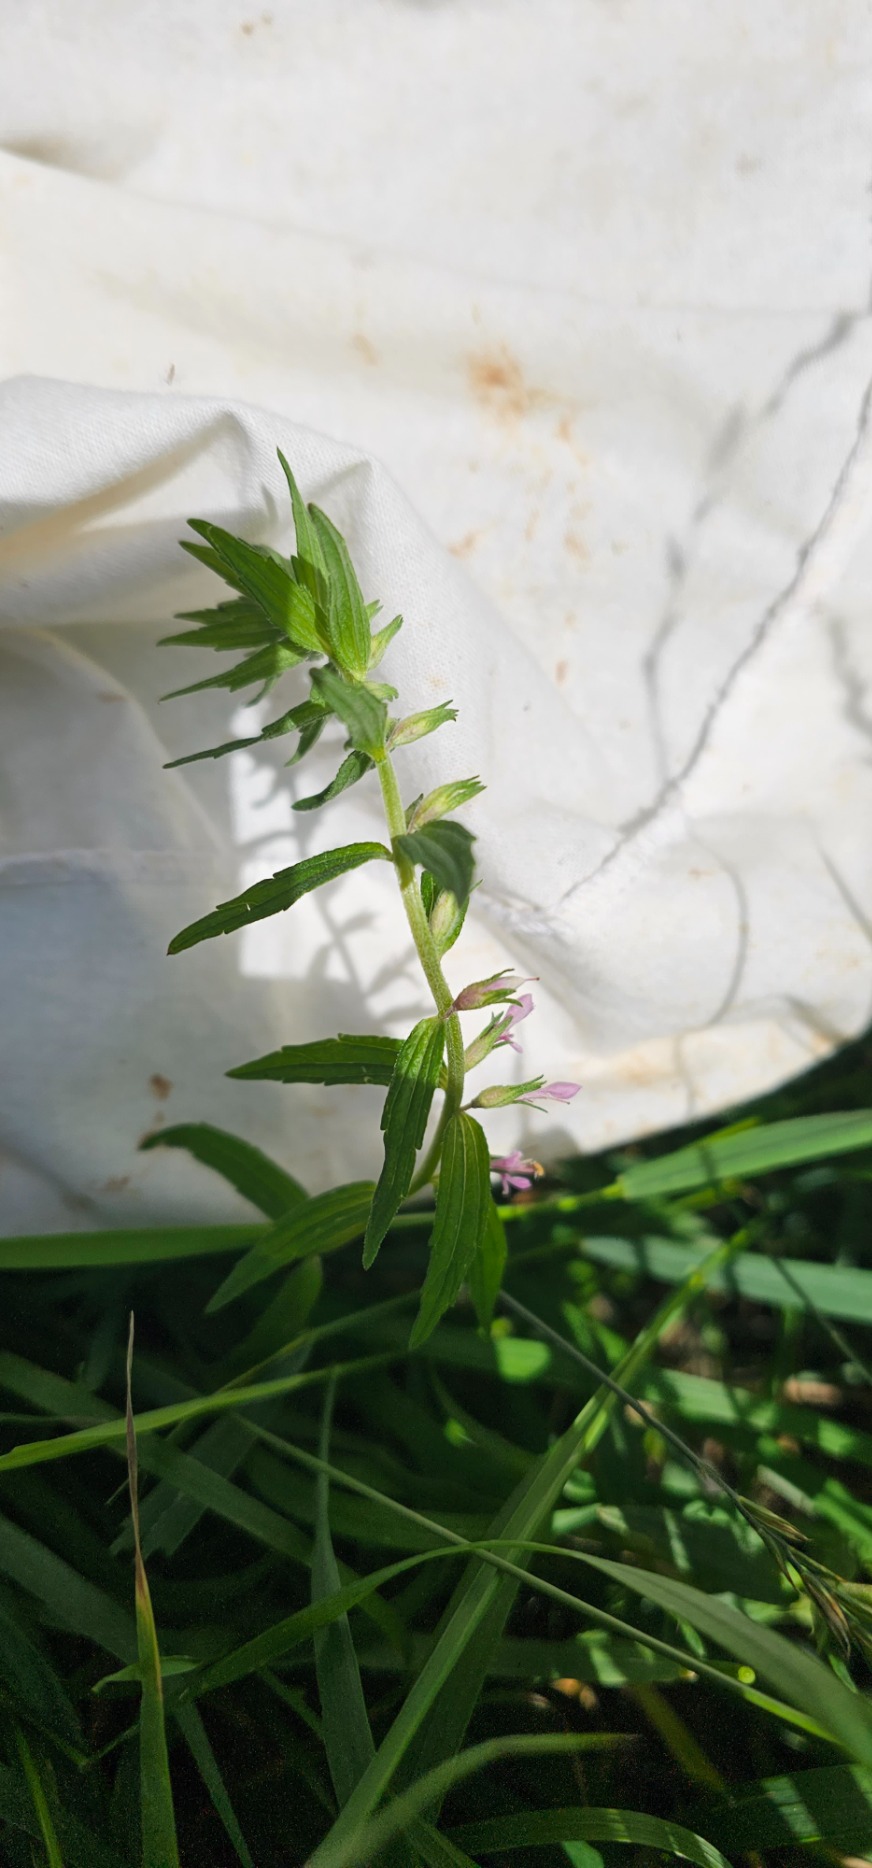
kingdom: Plantae
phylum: Tracheophyta
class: Magnoliopsida
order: Lamiales
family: Orobanchaceae
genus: Odontites
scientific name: Odontites
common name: Rødtopslægten
